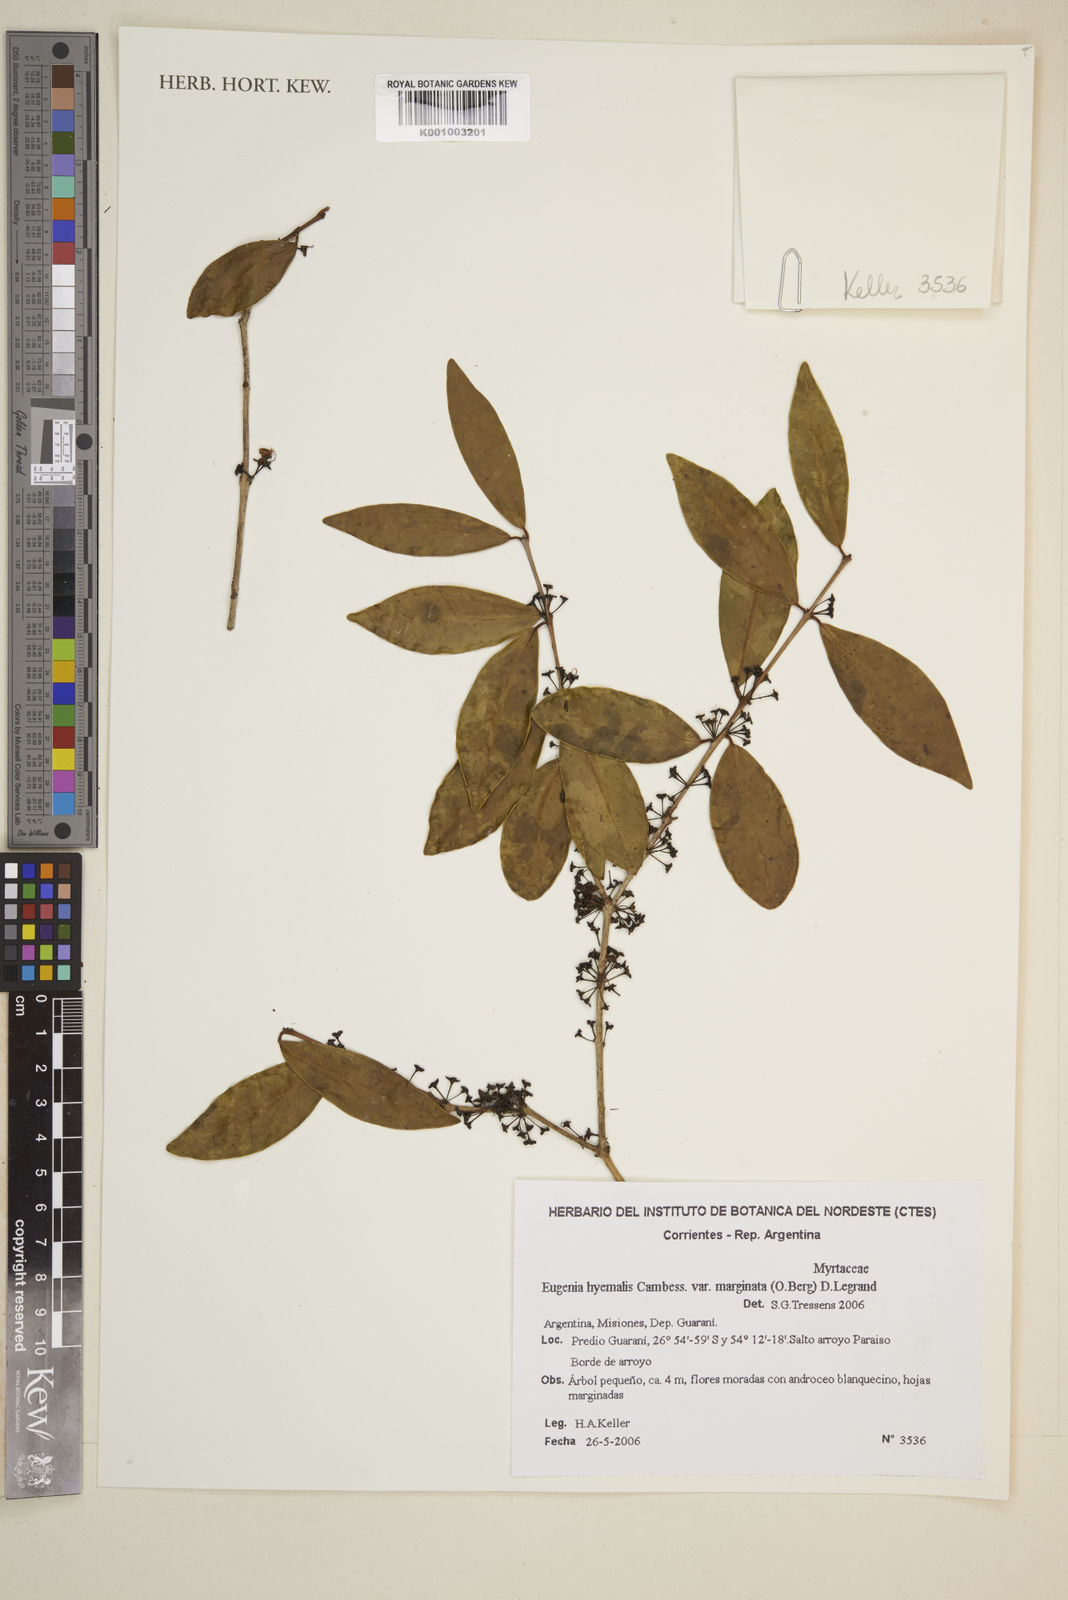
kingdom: Plantae
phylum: Tracheophyta
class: Magnoliopsida
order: Myrtales
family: Myrtaceae
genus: Eugenia
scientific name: Eugenia
